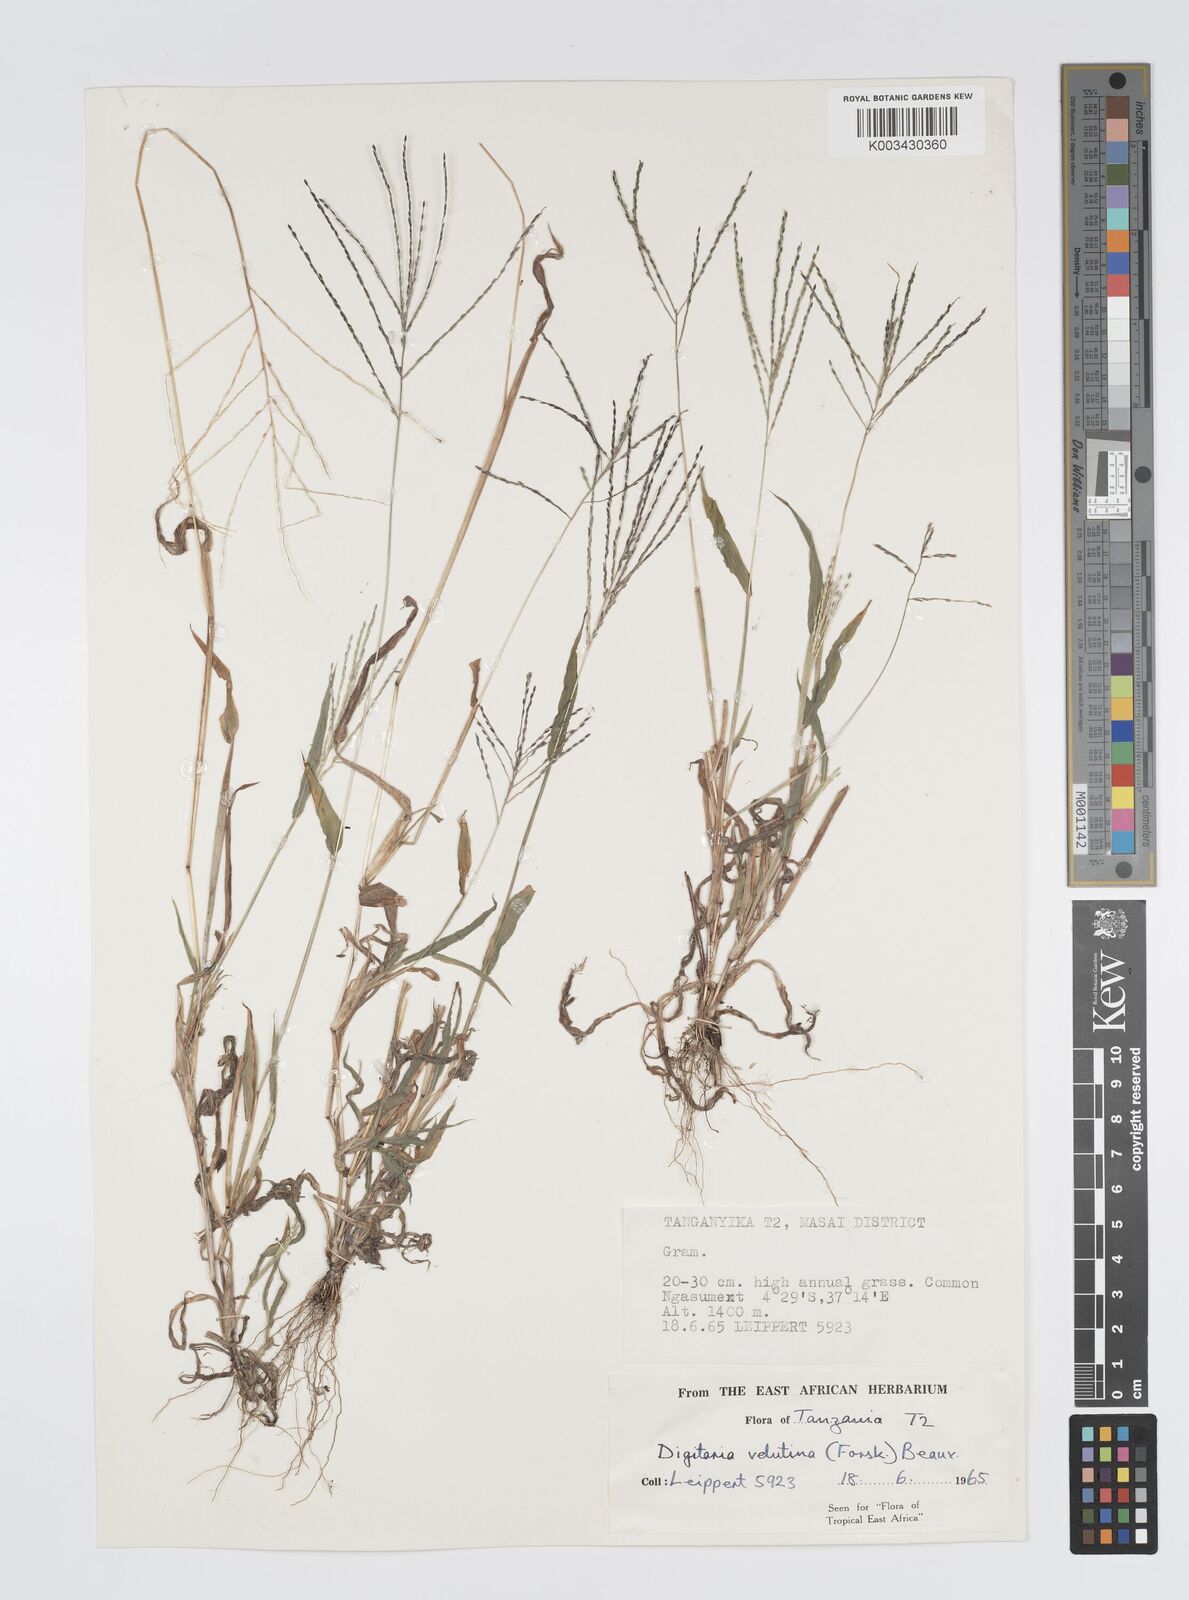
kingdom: Plantae
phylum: Tracheophyta
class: Liliopsida
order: Poales
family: Poaceae
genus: Digitaria
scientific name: Digitaria velutina
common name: Long-plume finger grass
